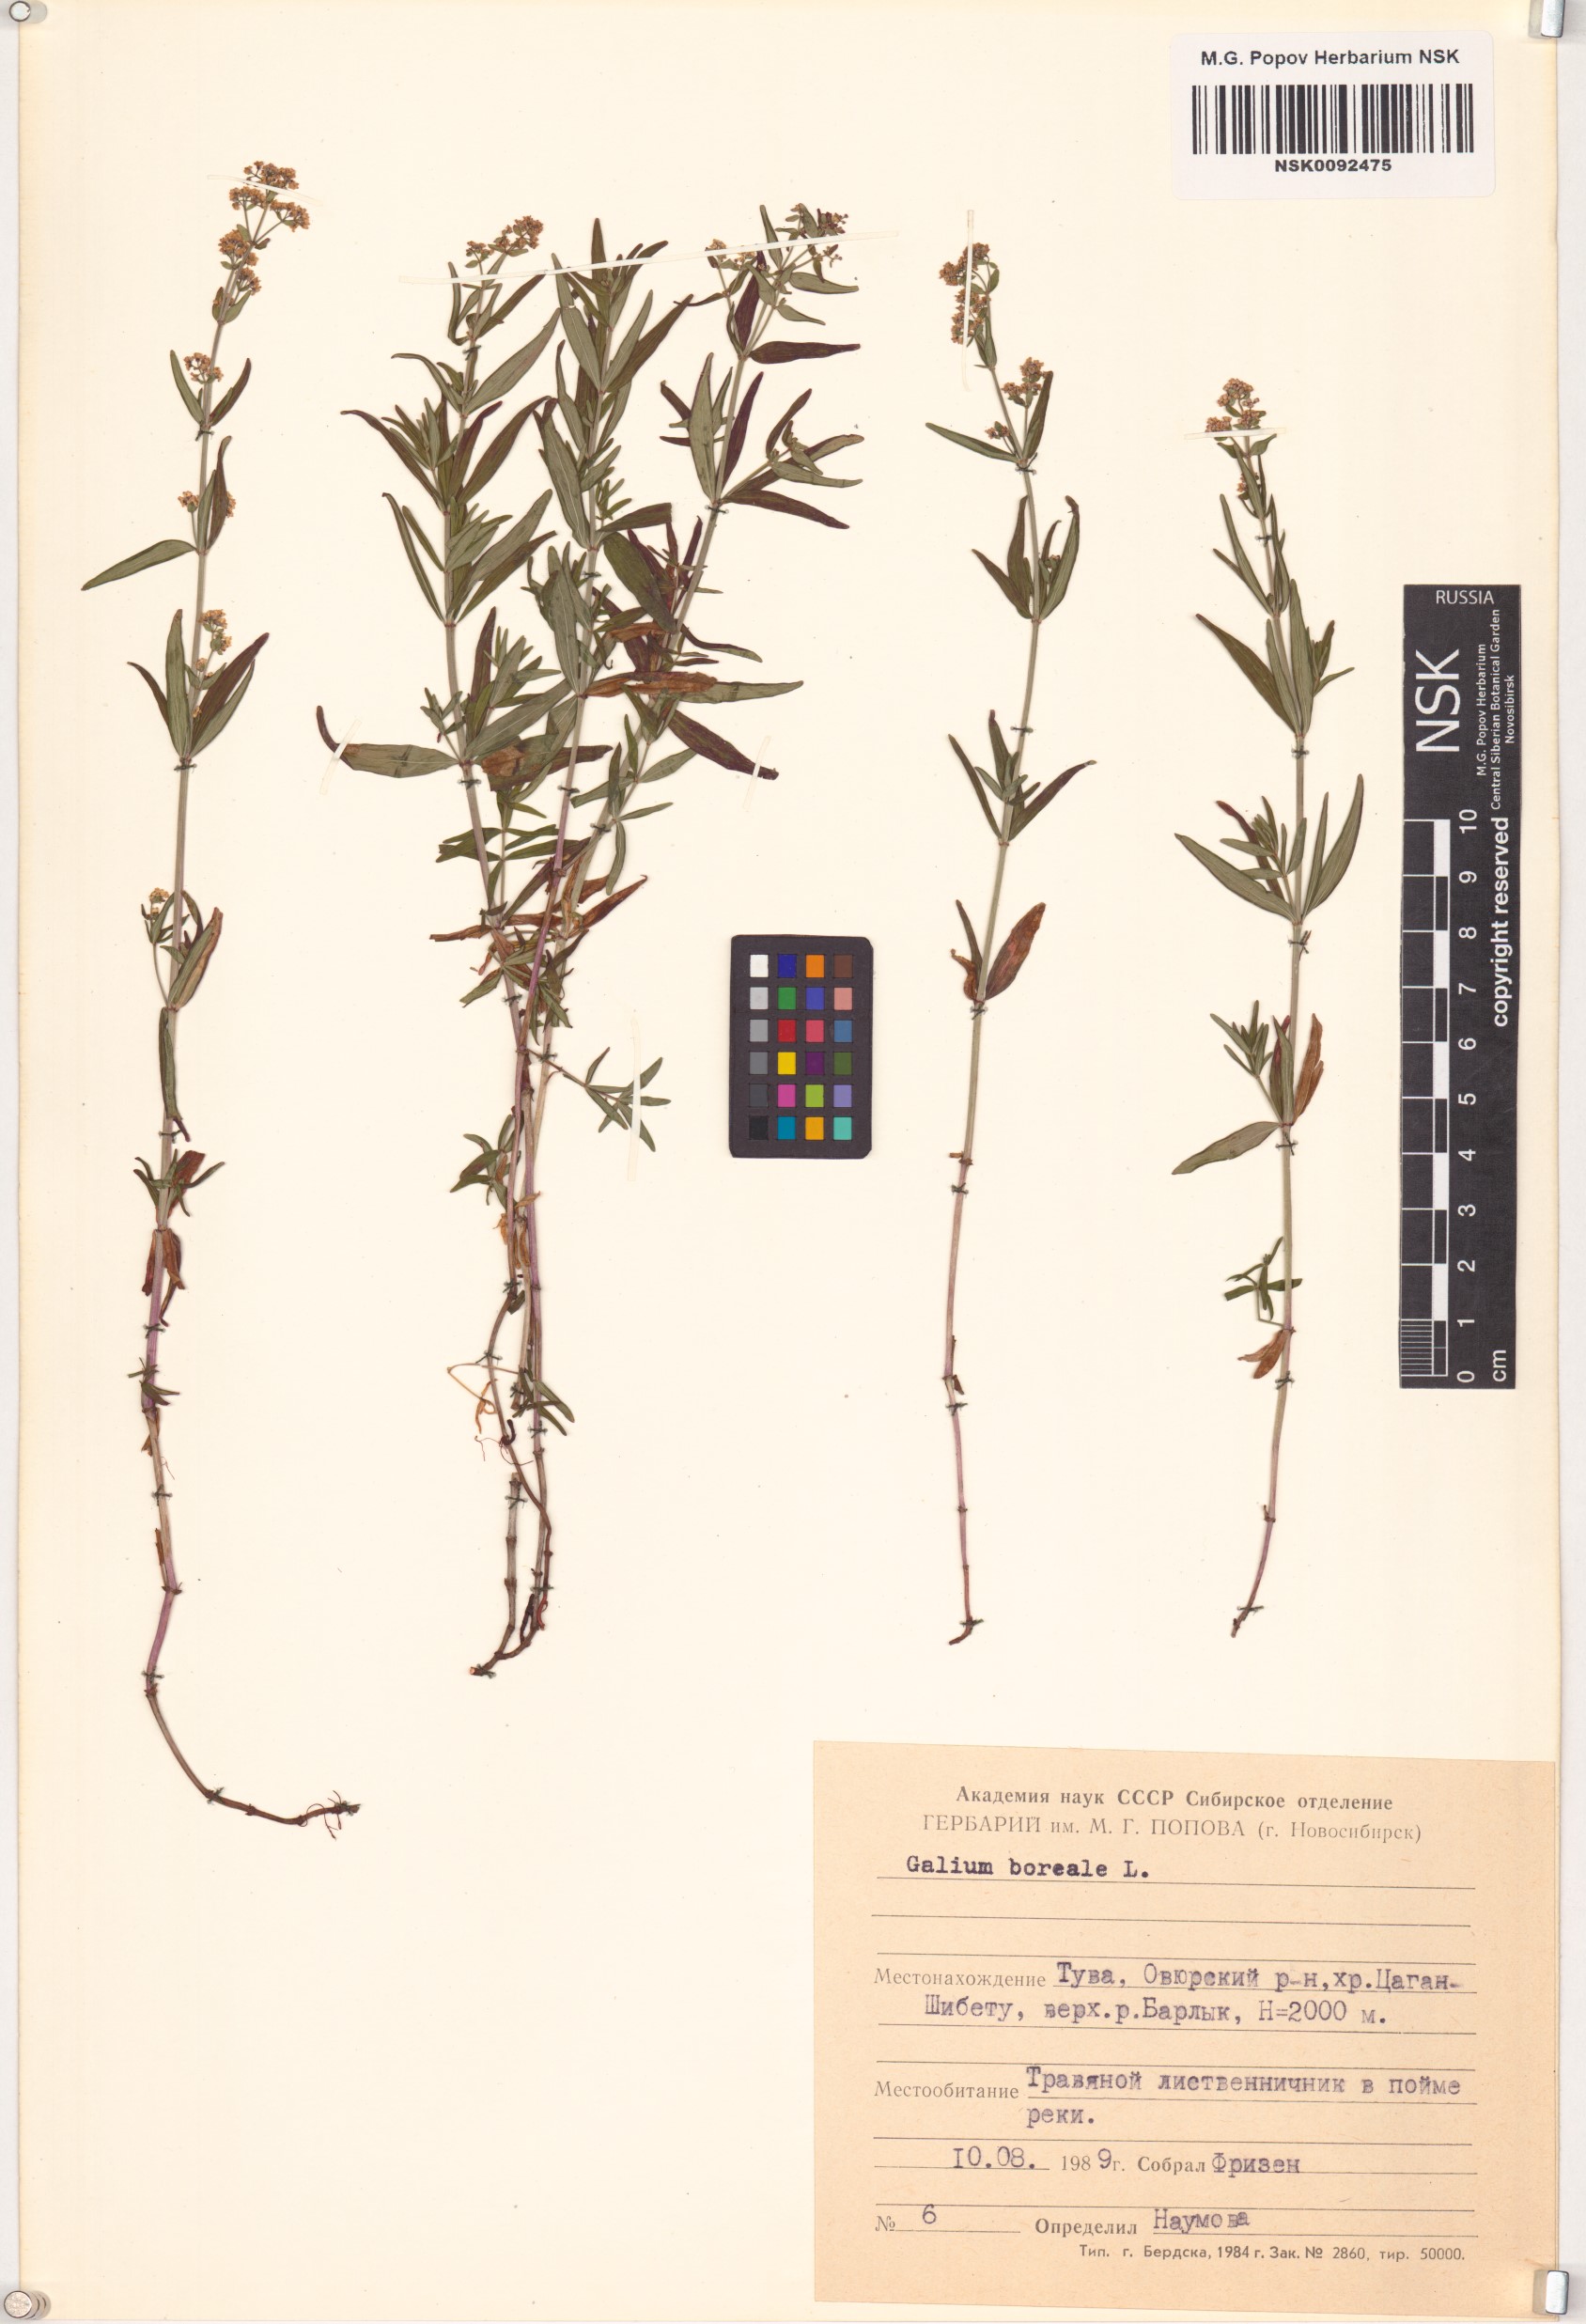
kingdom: Plantae
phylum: Tracheophyta
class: Magnoliopsida
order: Gentianales
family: Rubiaceae
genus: Galium
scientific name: Galium boreale
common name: Northern bedstraw
